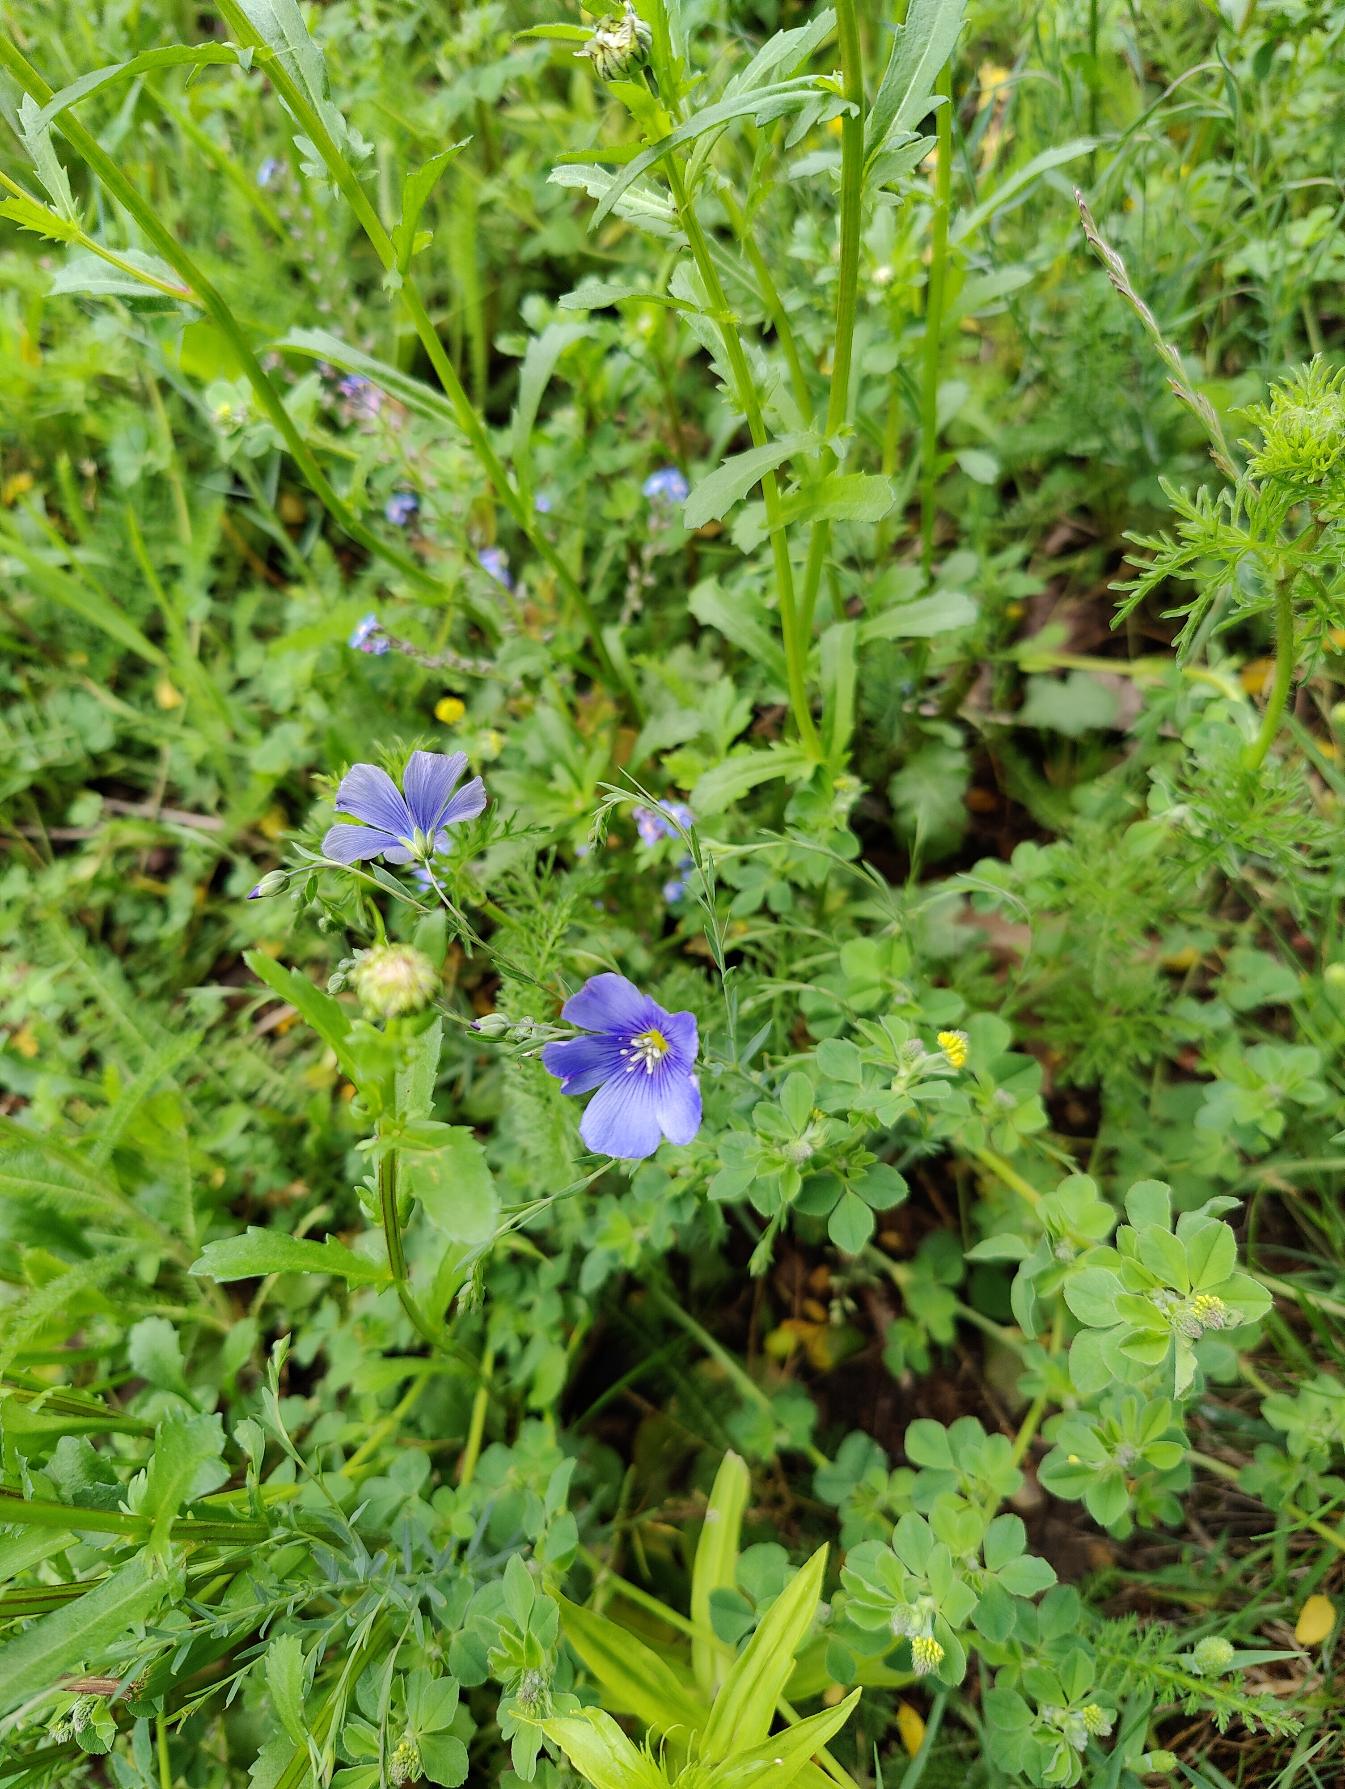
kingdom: Plantae
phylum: Tracheophyta
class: Magnoliopsida
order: Malpighiales
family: Linaceae
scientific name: Linaceae
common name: Hørfamilien
